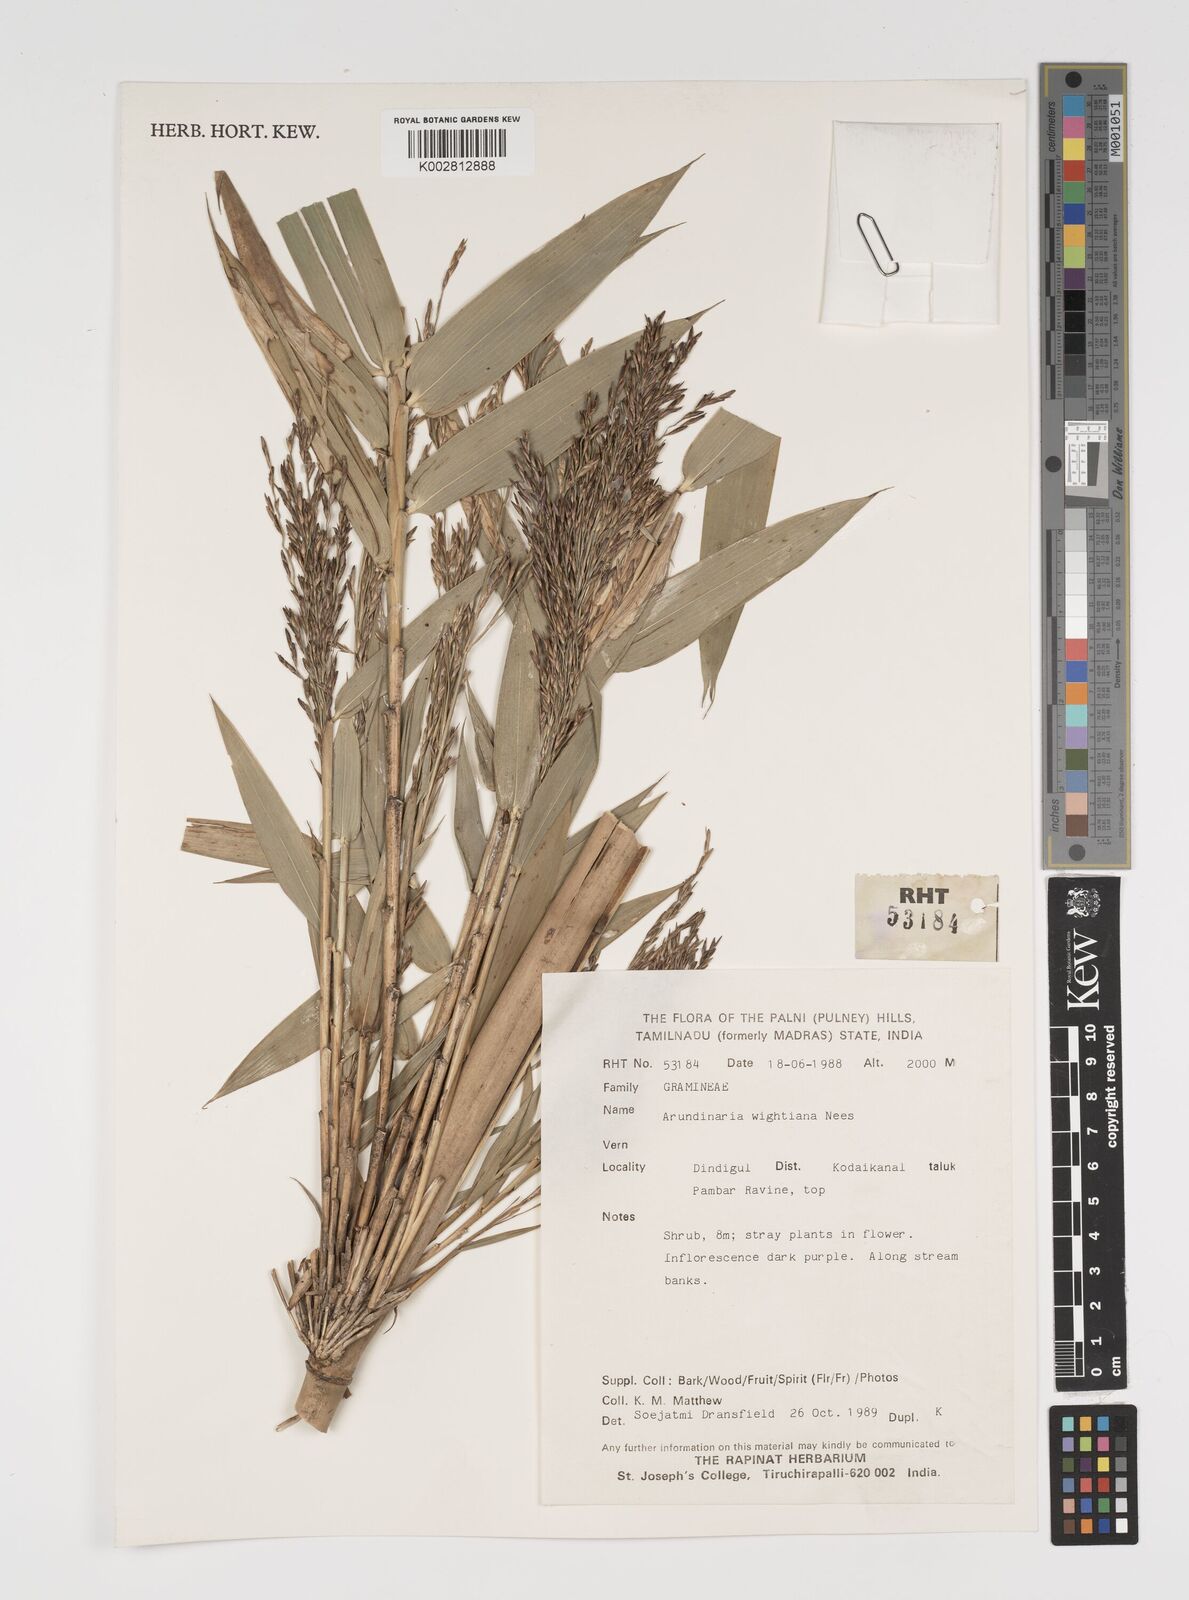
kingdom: Plantae
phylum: Tracheophyta
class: Liliopsida
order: Poales
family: Poaceae
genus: Kuruna
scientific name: Kuruna wightiana
